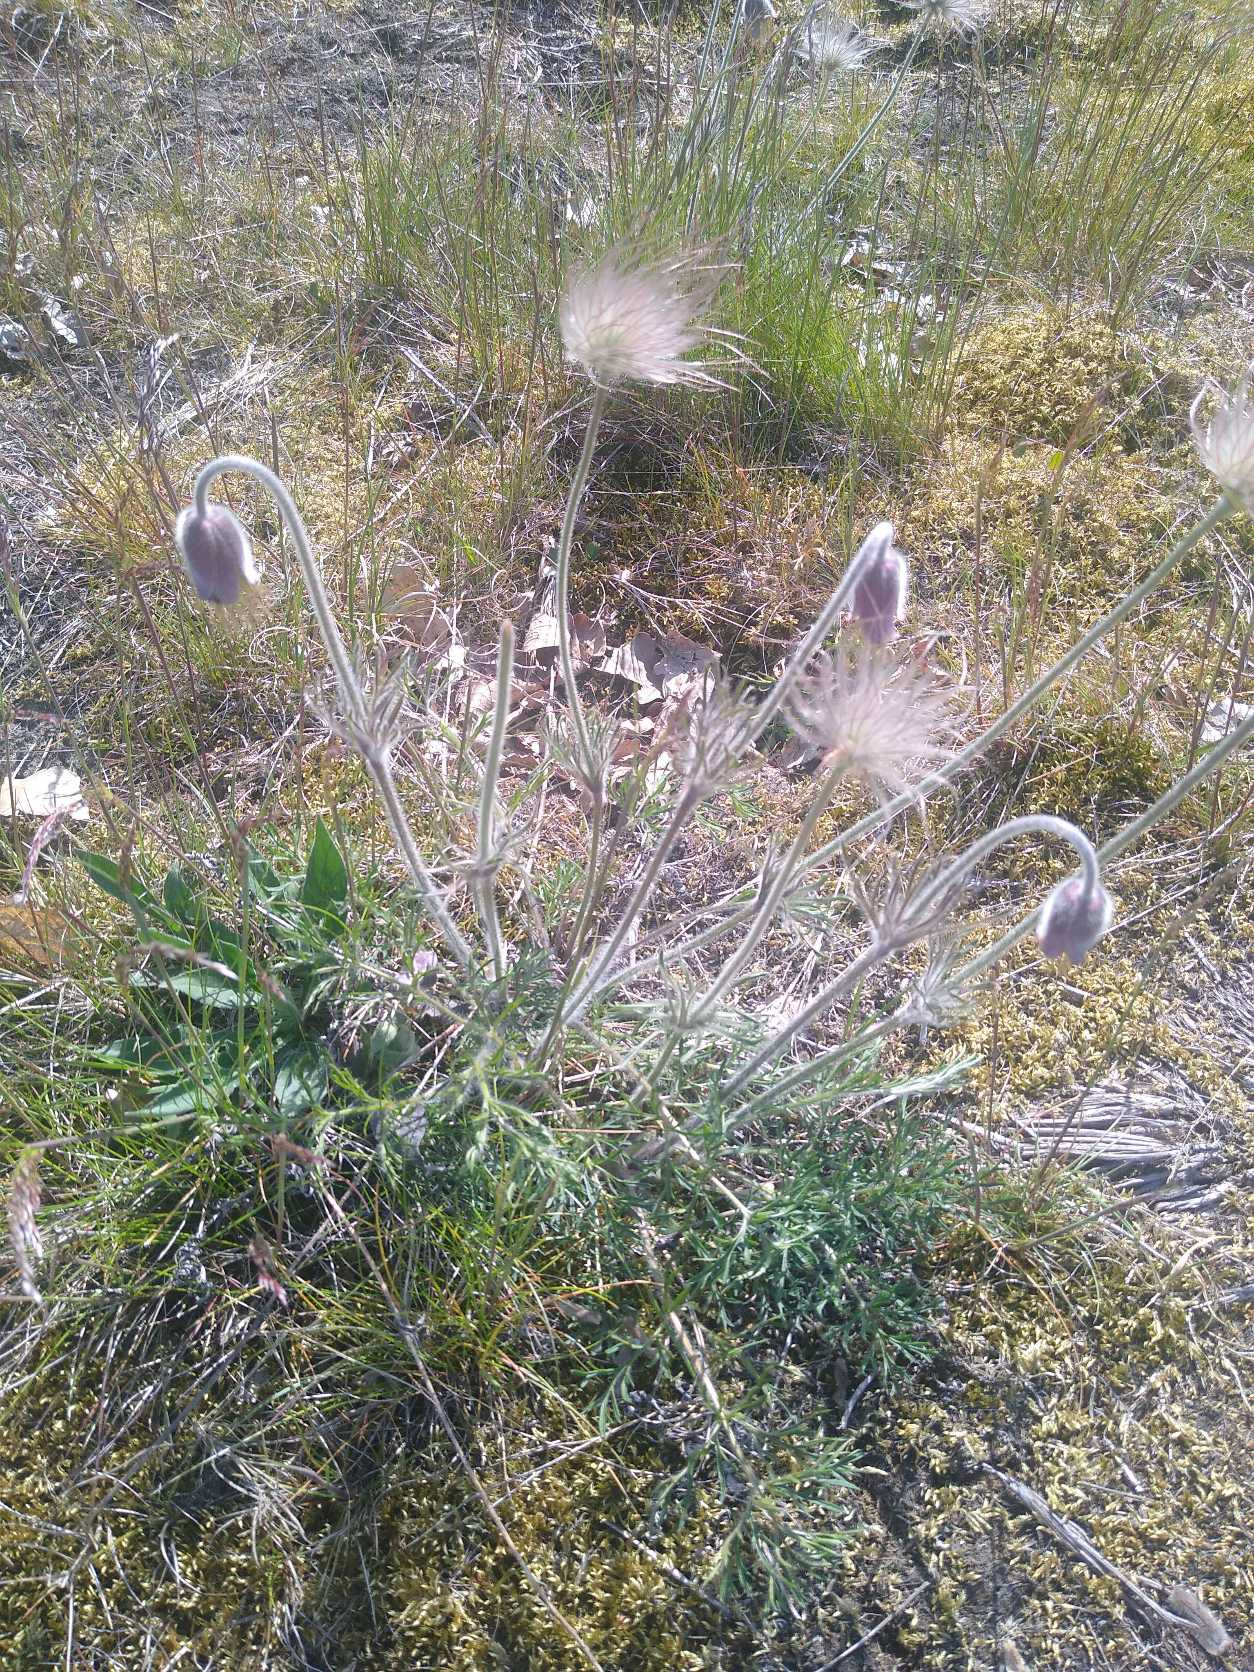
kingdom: Plantae
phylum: Tracheophyta
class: Magnoliopsida
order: Ranunculales
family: Ranunculaceae
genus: Pulsatilla
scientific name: Pulsatilla pratensis
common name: Nikkende kobjælde
